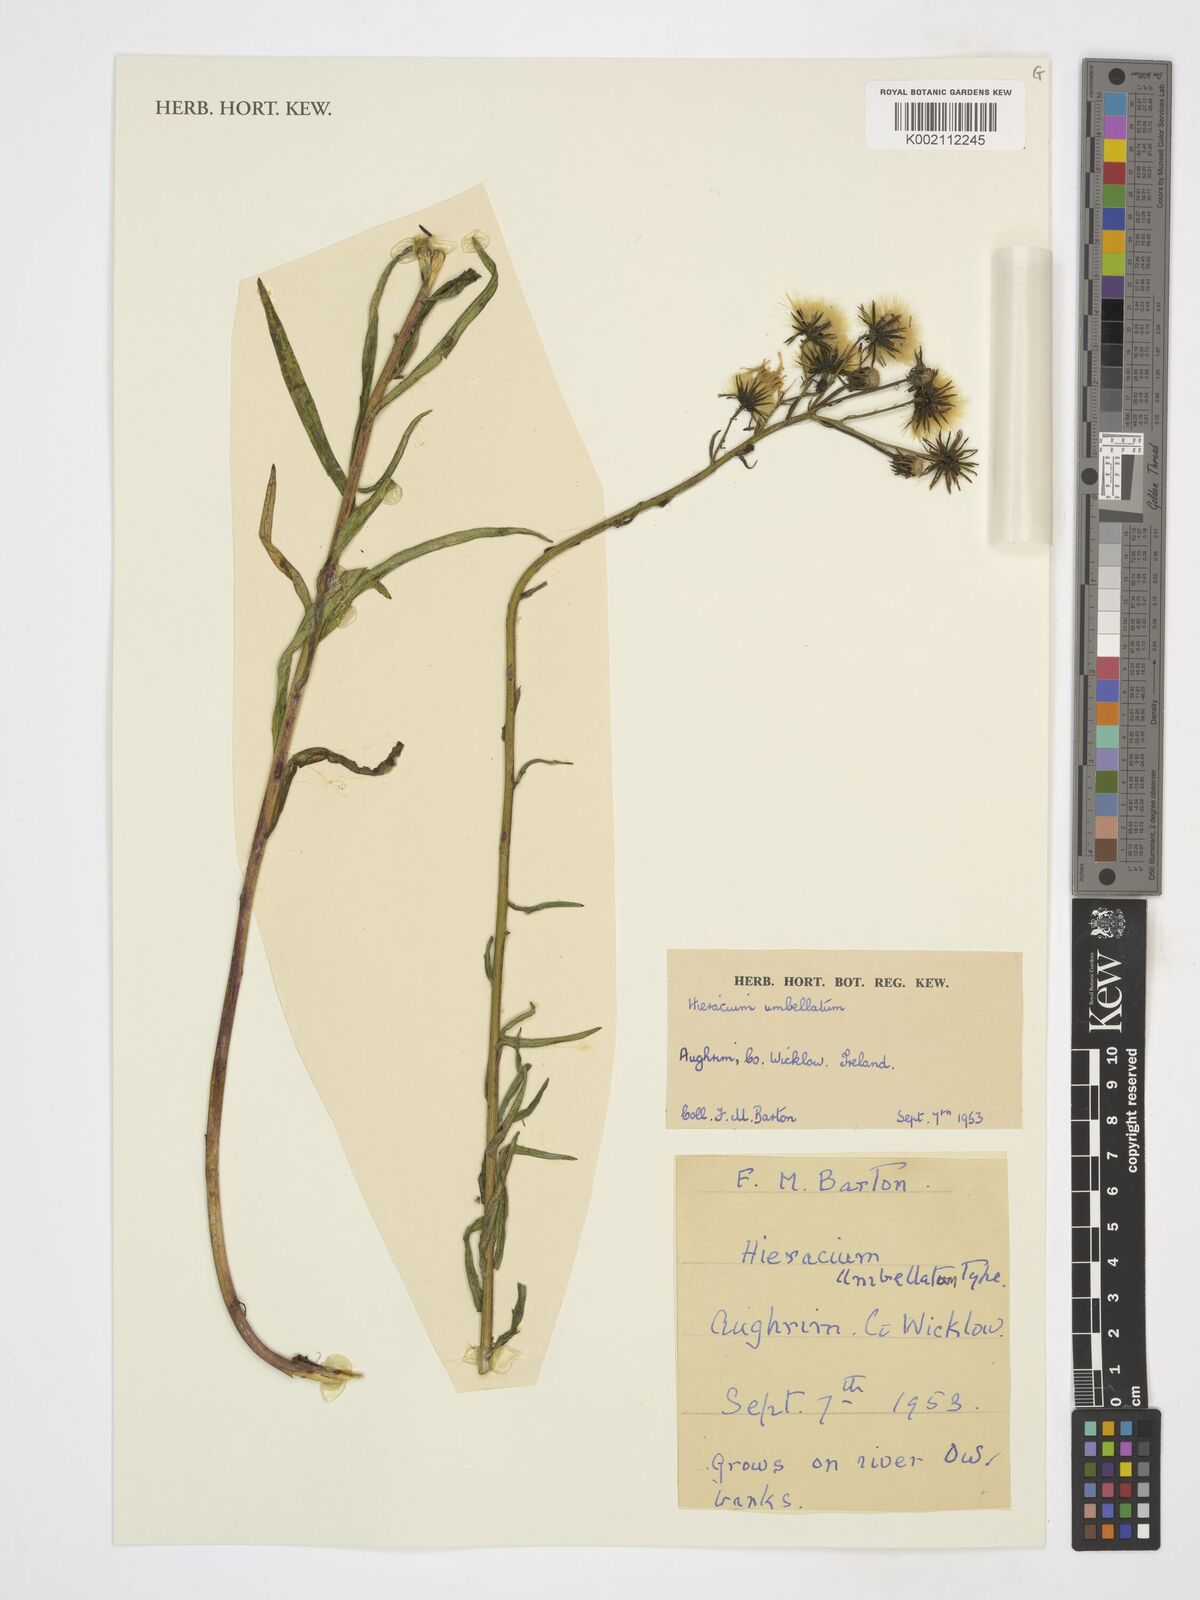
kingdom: Plantae
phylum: Tracheophyta
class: Magnoliopsida
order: Asterales
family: Asteraceae
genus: Hieracium
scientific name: Hieracium umbellatum
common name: Northern hawkweed
